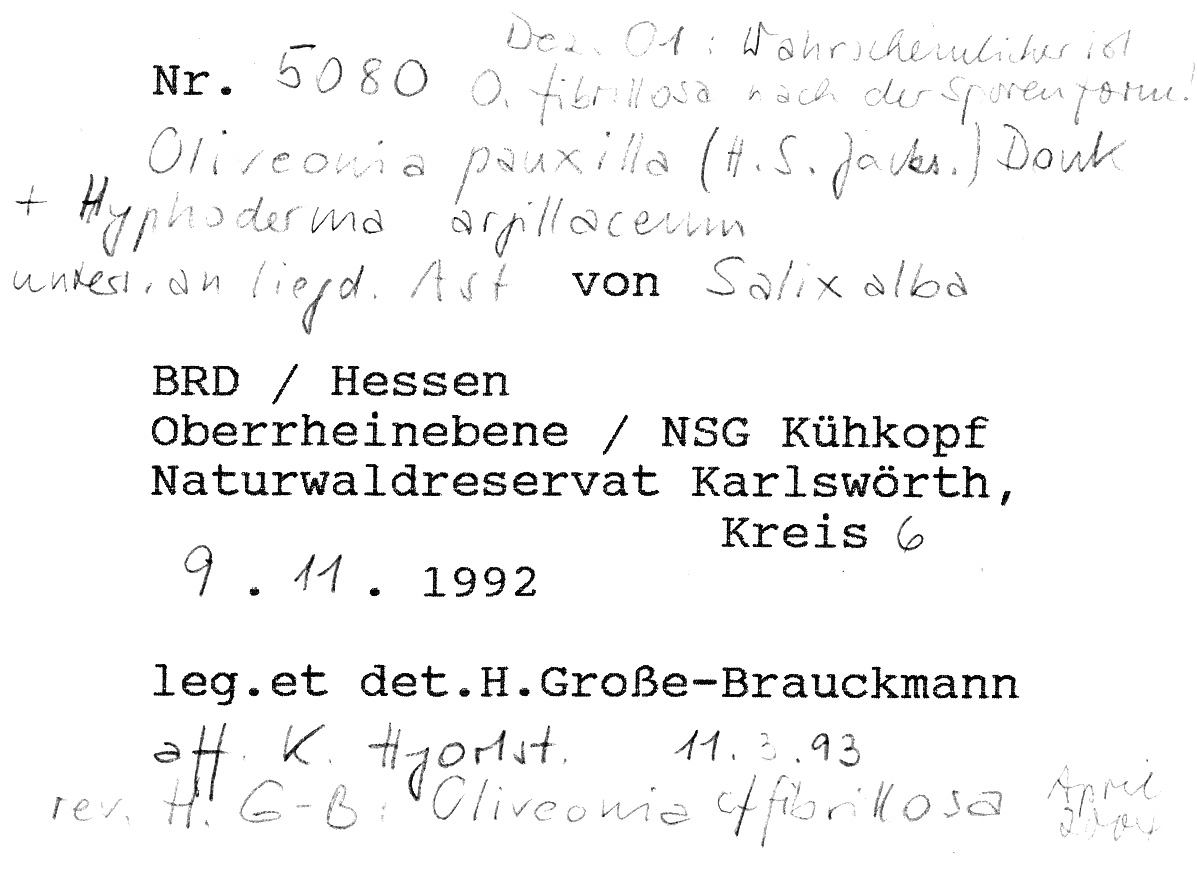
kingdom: Fungi
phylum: Basidiomycota
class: Agaricomycetes
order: Hymenochaetales
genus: Kurtia
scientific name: Kurtia argillacea
